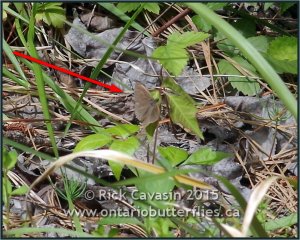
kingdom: Animalia
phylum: Arthropoda
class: Insecta
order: Lepidoptera
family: Nymphalidae
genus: Hermeuptychia
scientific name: Hermeuptychia hermes
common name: Carolina Satyr
